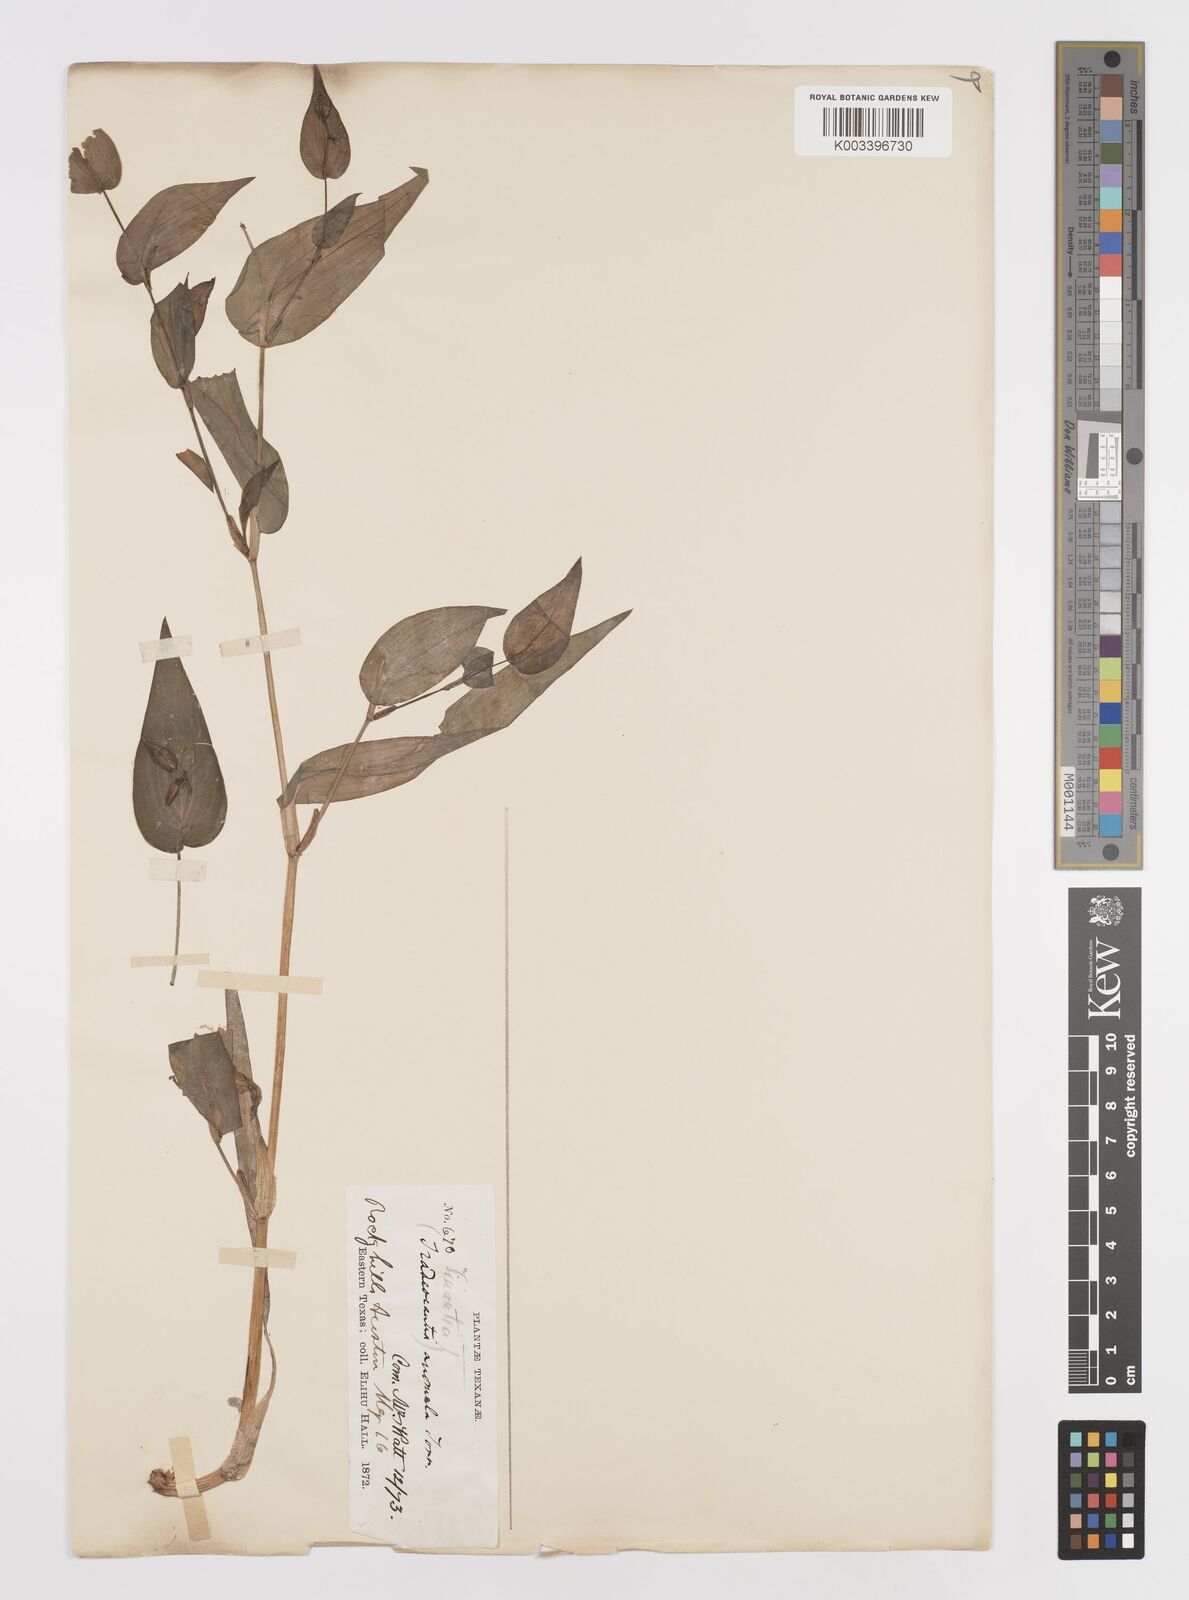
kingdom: Plantae
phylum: Tracheophyta
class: Liliopsida
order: Commelinales
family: Commelinaceae
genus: Tinantia
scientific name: Tinantia anomala
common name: False dayflower
